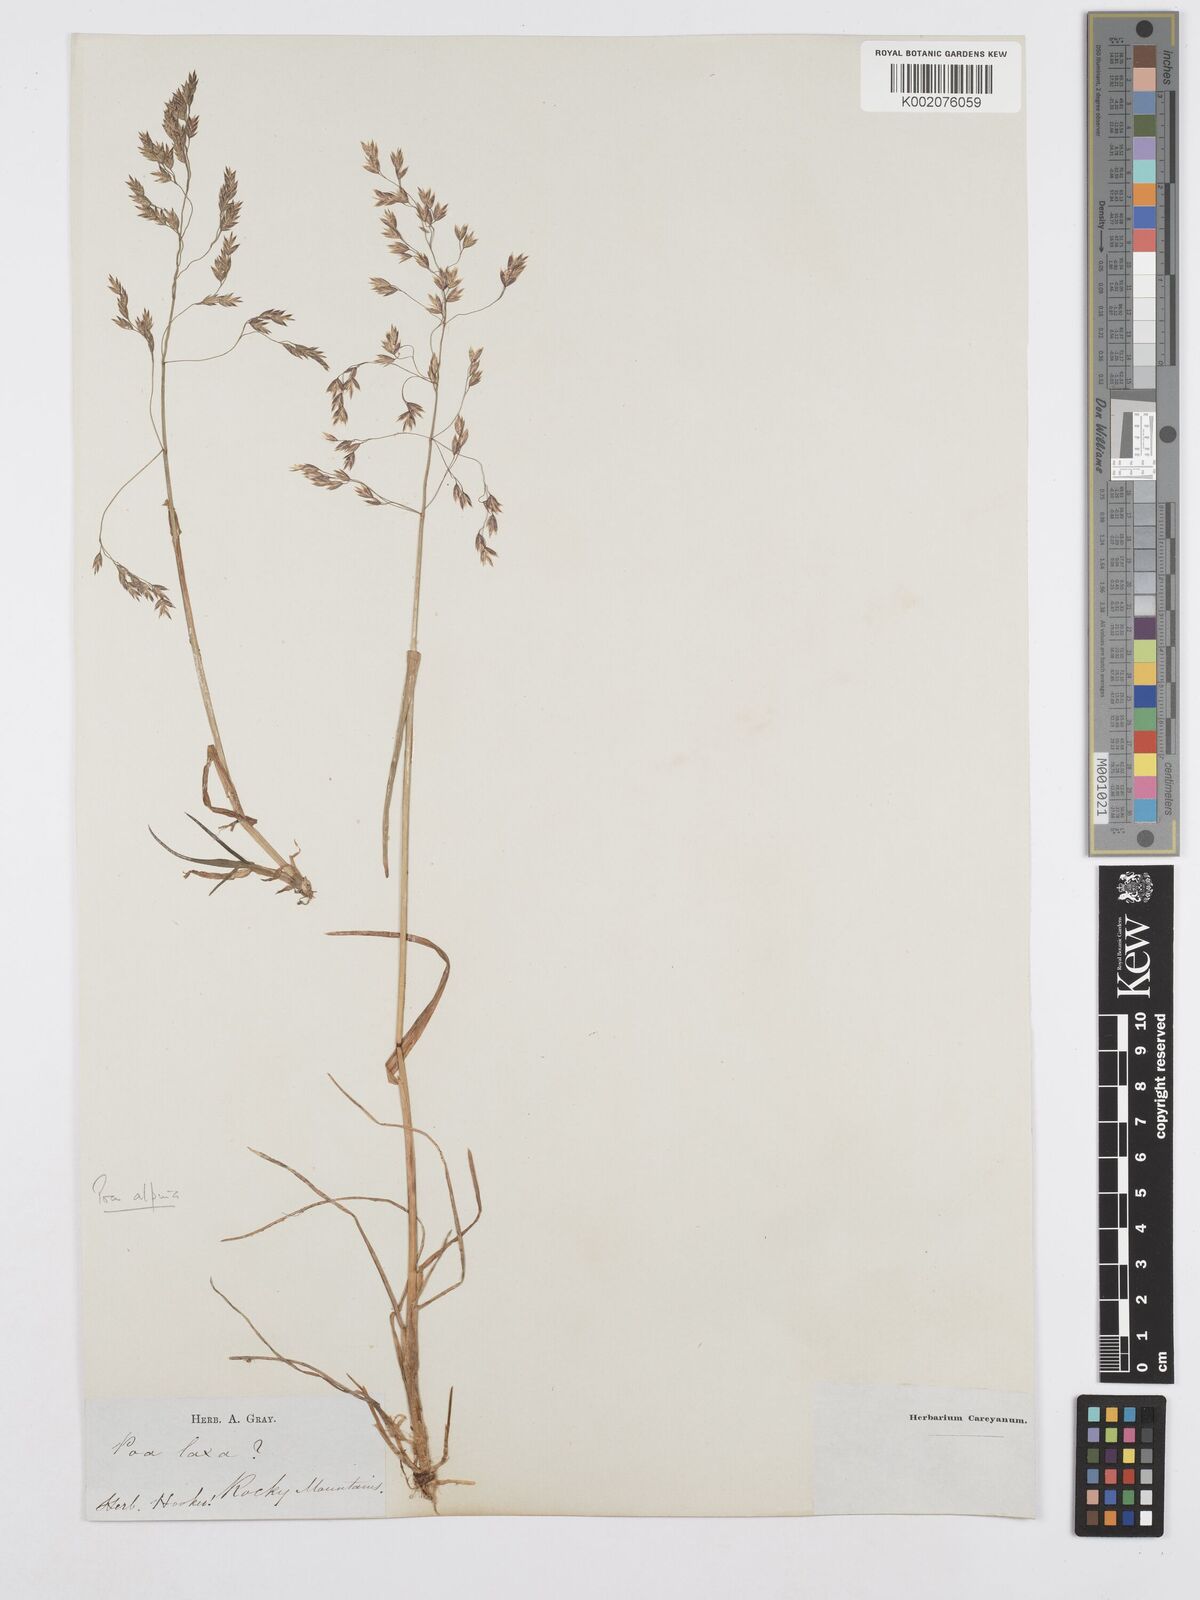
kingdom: Plantae
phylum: Tracheophyta
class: Liliopsida
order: Poales
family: Poaceae
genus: Poa
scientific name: Poa alpina
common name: Alpine bluegrass
